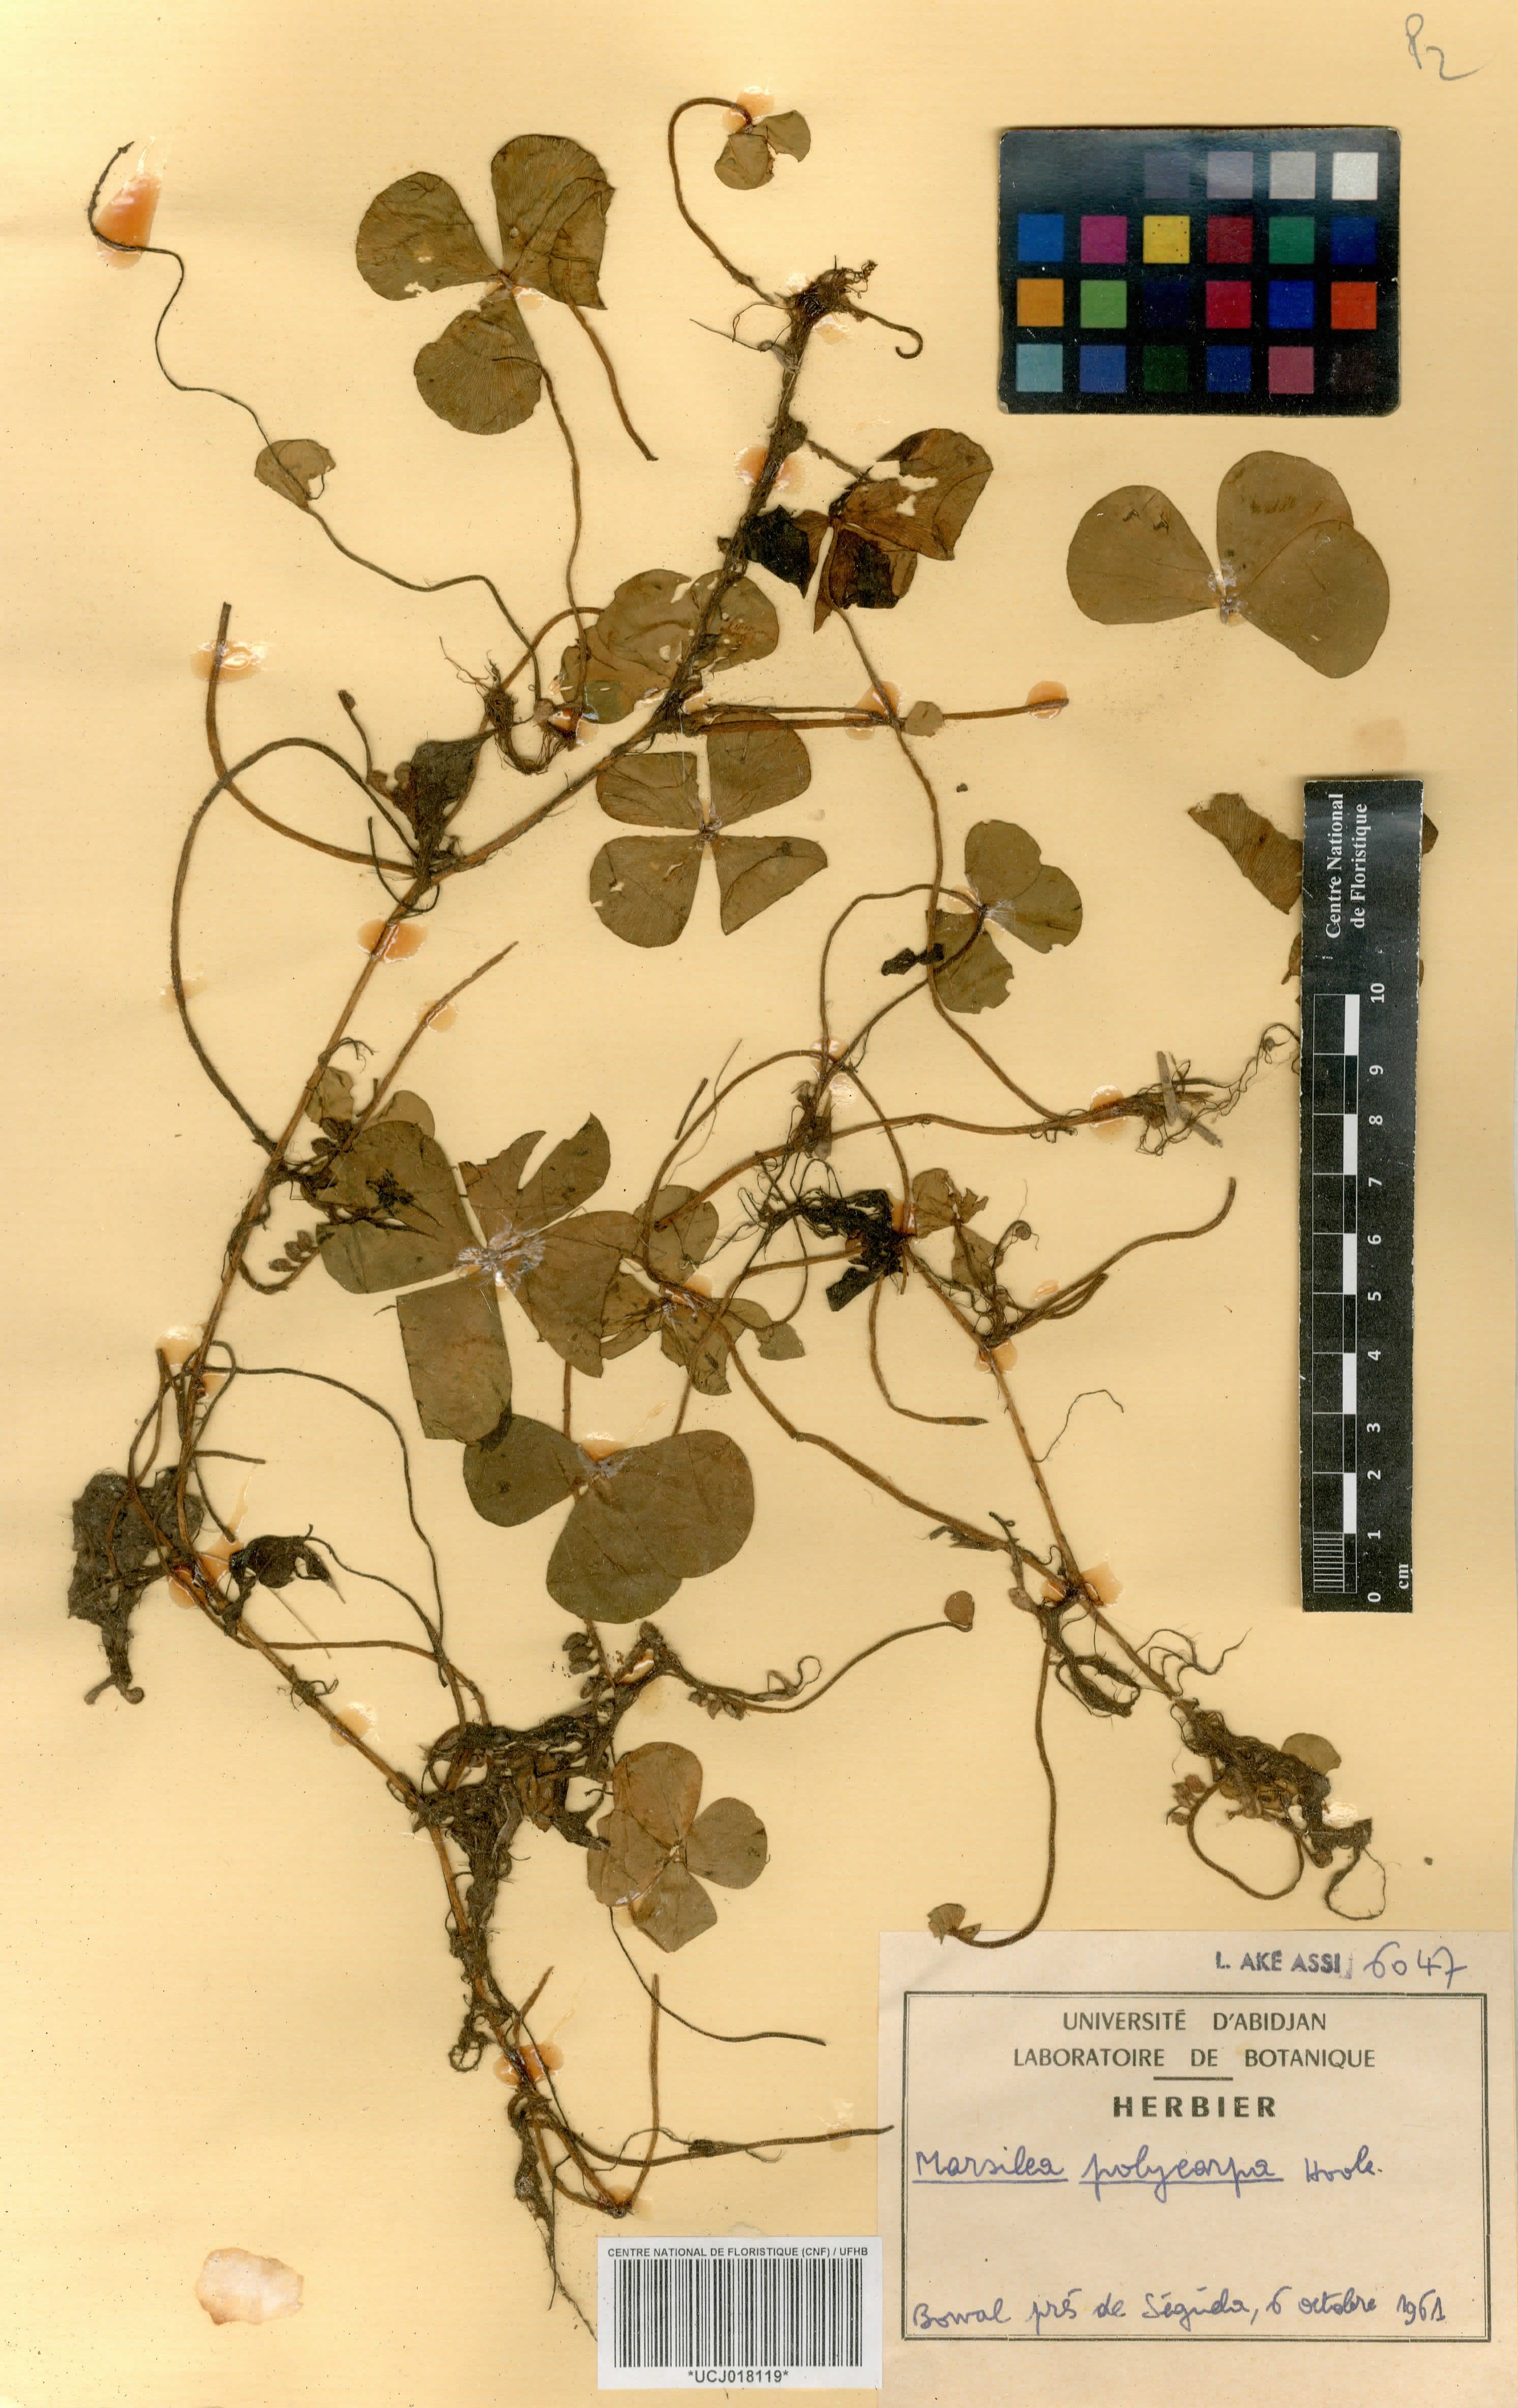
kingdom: Plantae
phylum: Tracheophyta
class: Polypodiopsida
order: Salviniales
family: Marsileaceae
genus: Marsilea
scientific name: Marsilea polycarpa
